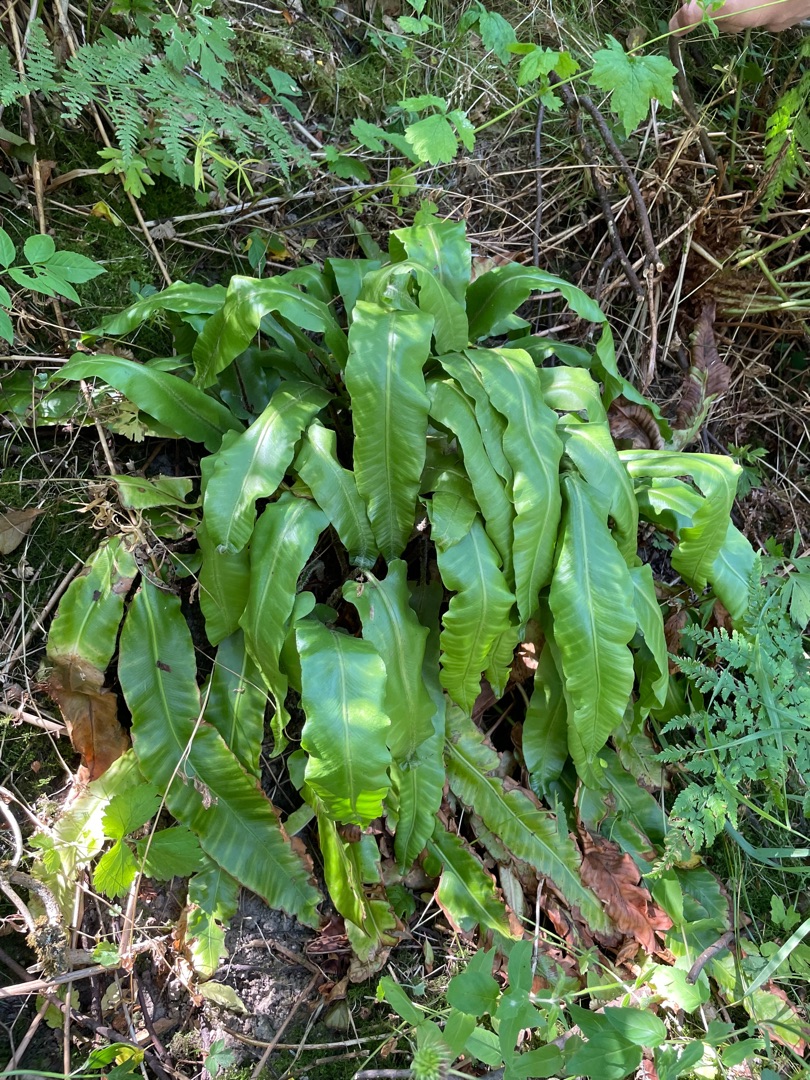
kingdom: Plantae
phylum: Tracheophyta
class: Polypodiopsida
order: Polypodiales
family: Aspleniaceae
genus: Asplenium
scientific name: Asplenium scolopendrium
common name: Hjortetunge
